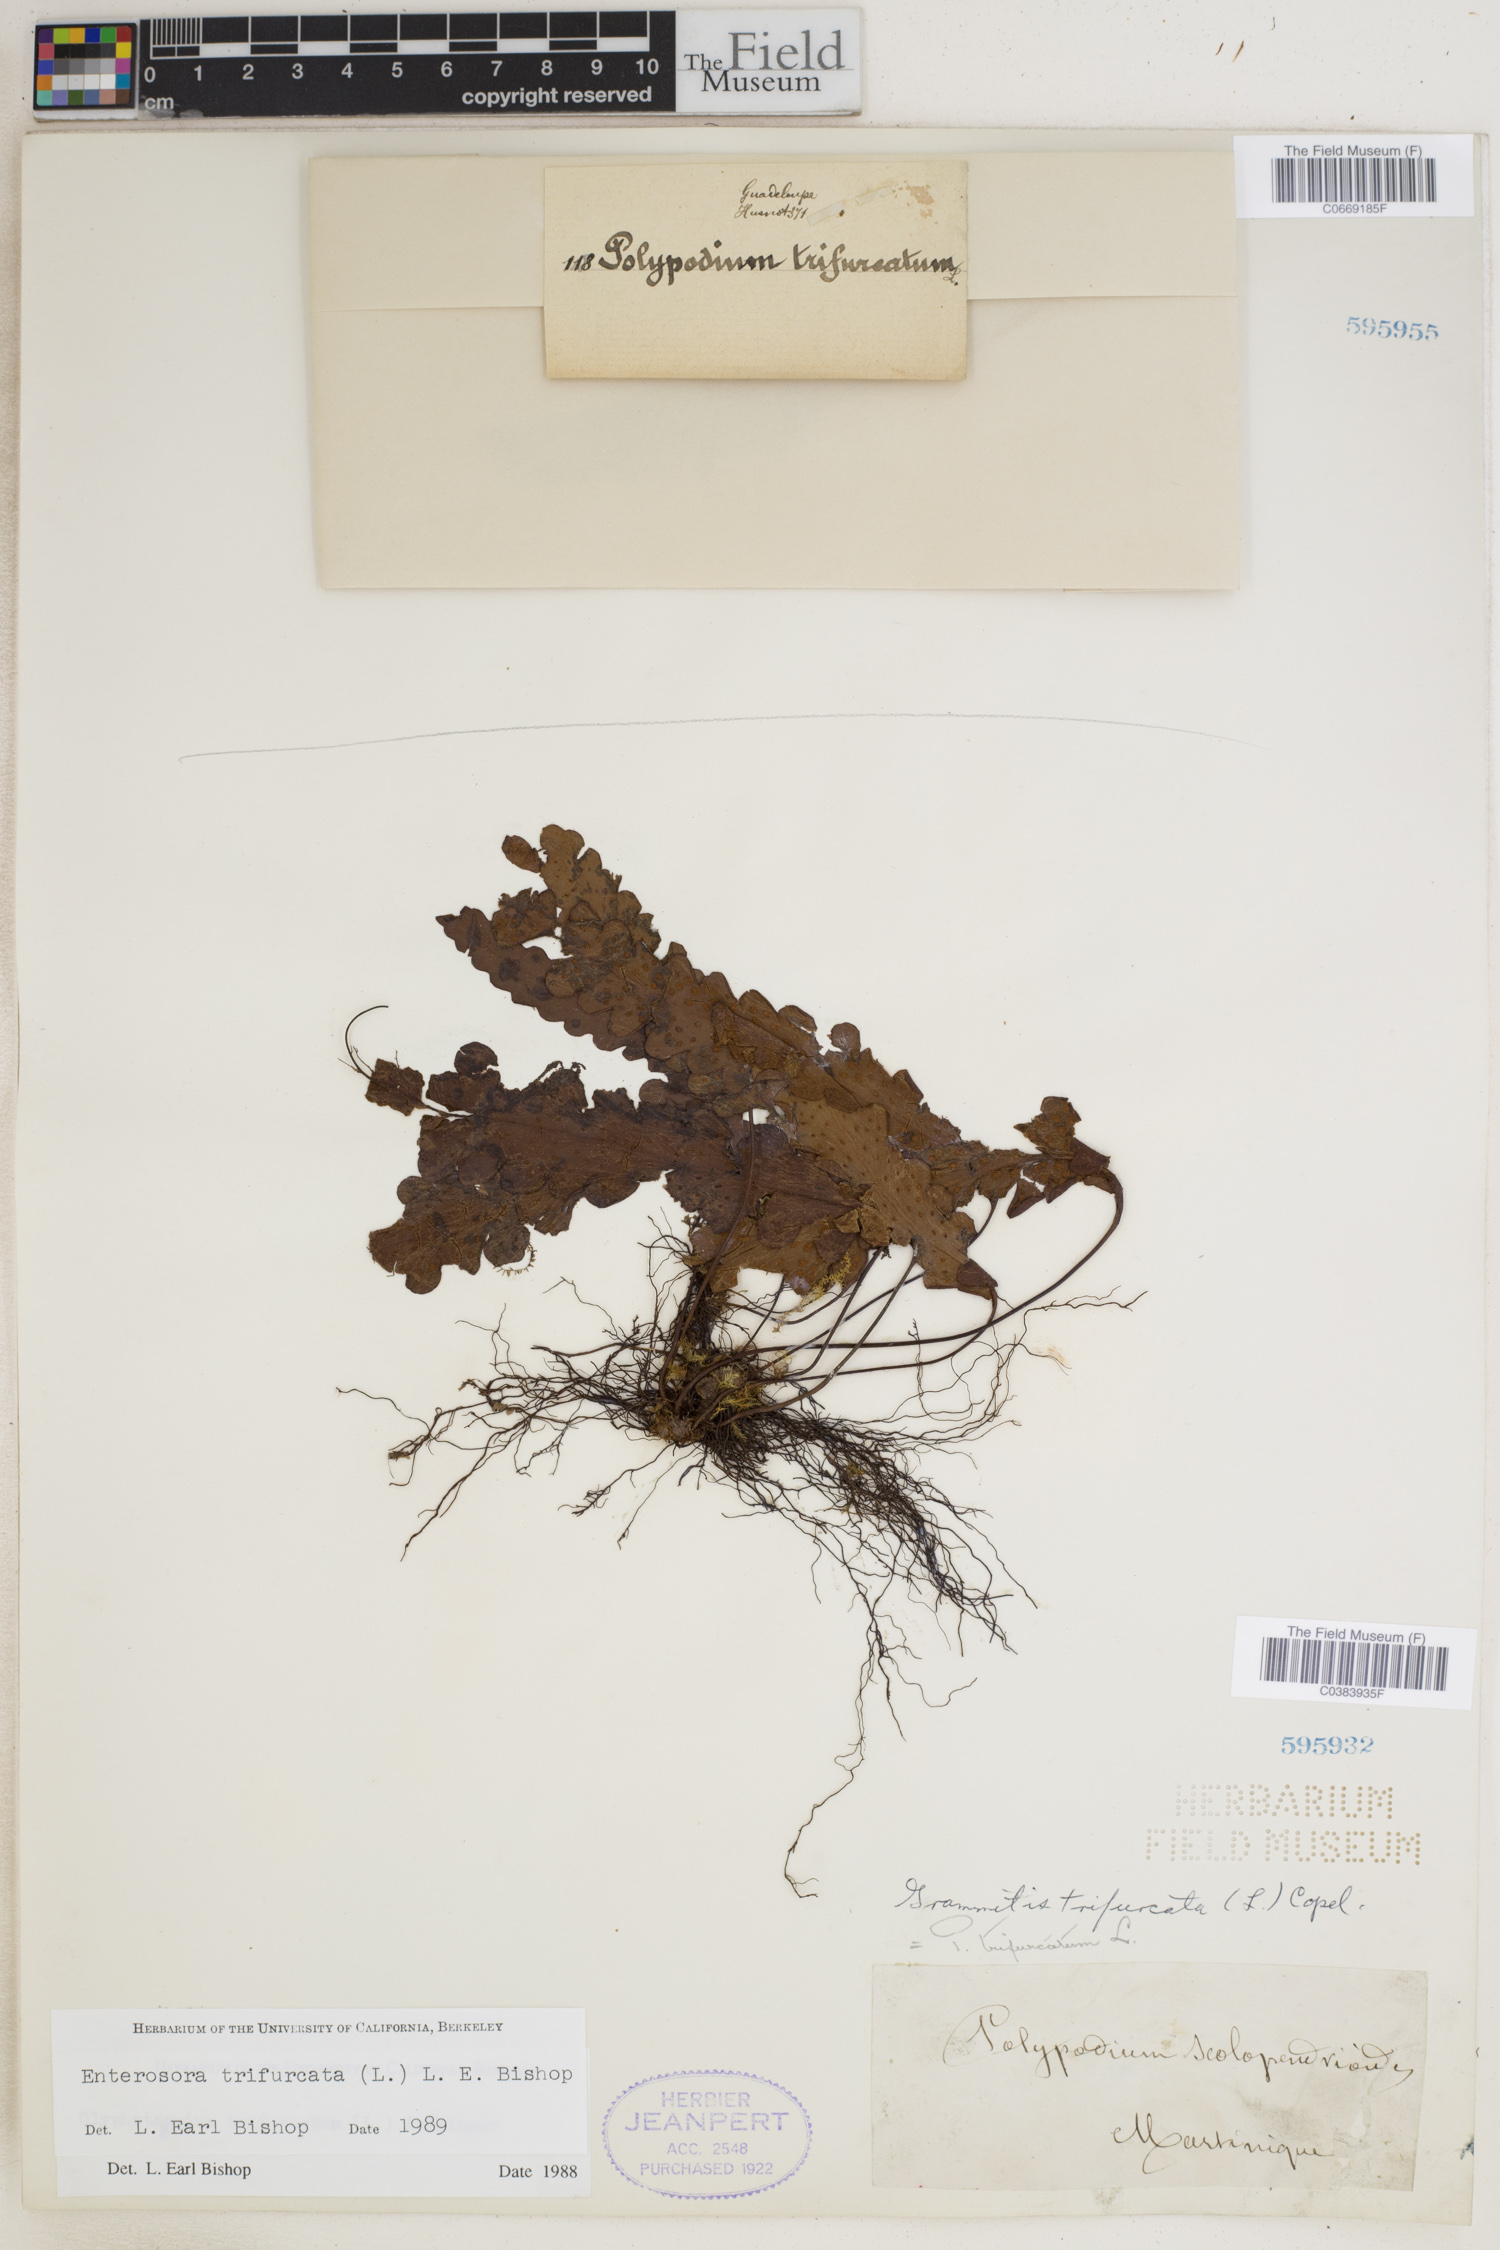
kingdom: Plantae
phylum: Tracheophyta
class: Polypodiopsida
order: Polypodiales
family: Polypodiaceae
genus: Enterosora
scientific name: Enterosora trifurcata
